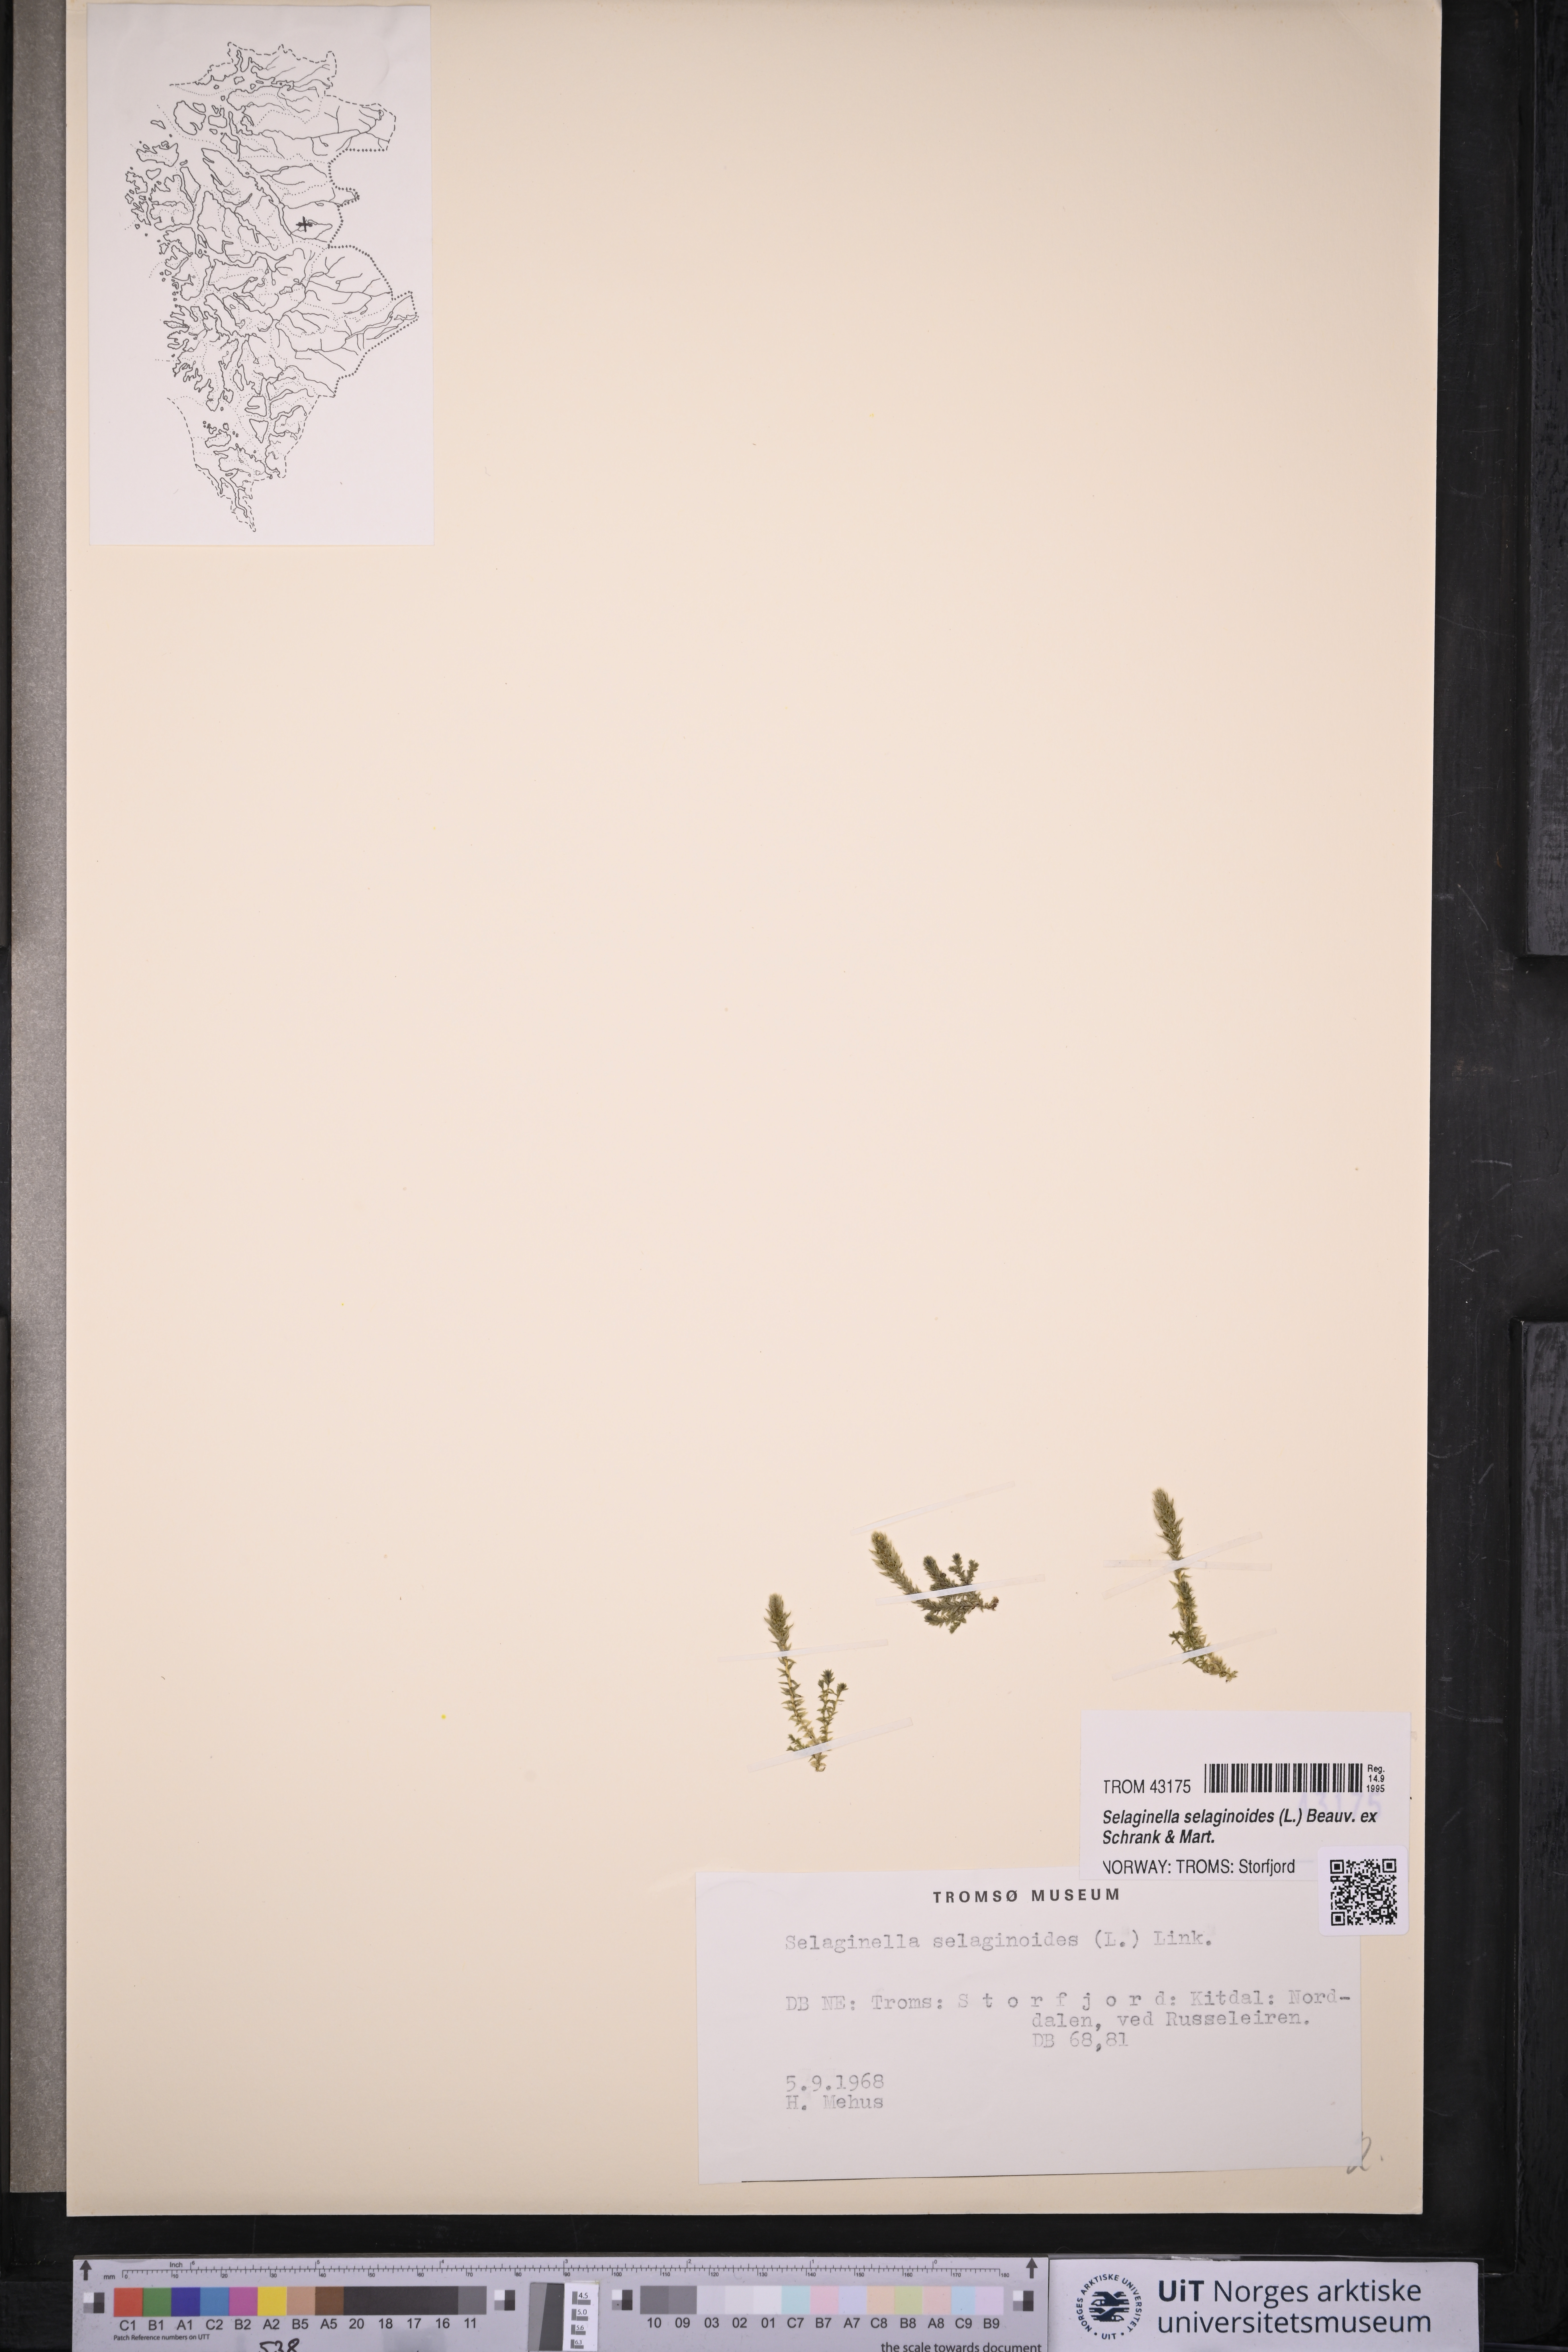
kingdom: Plantae
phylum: Tracheophyta
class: Lycopodiopsida
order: Selaginellales
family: Selaginellaceae
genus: Selaginella
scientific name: Selaginella selaginoides
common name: Prickly mountain-moss
